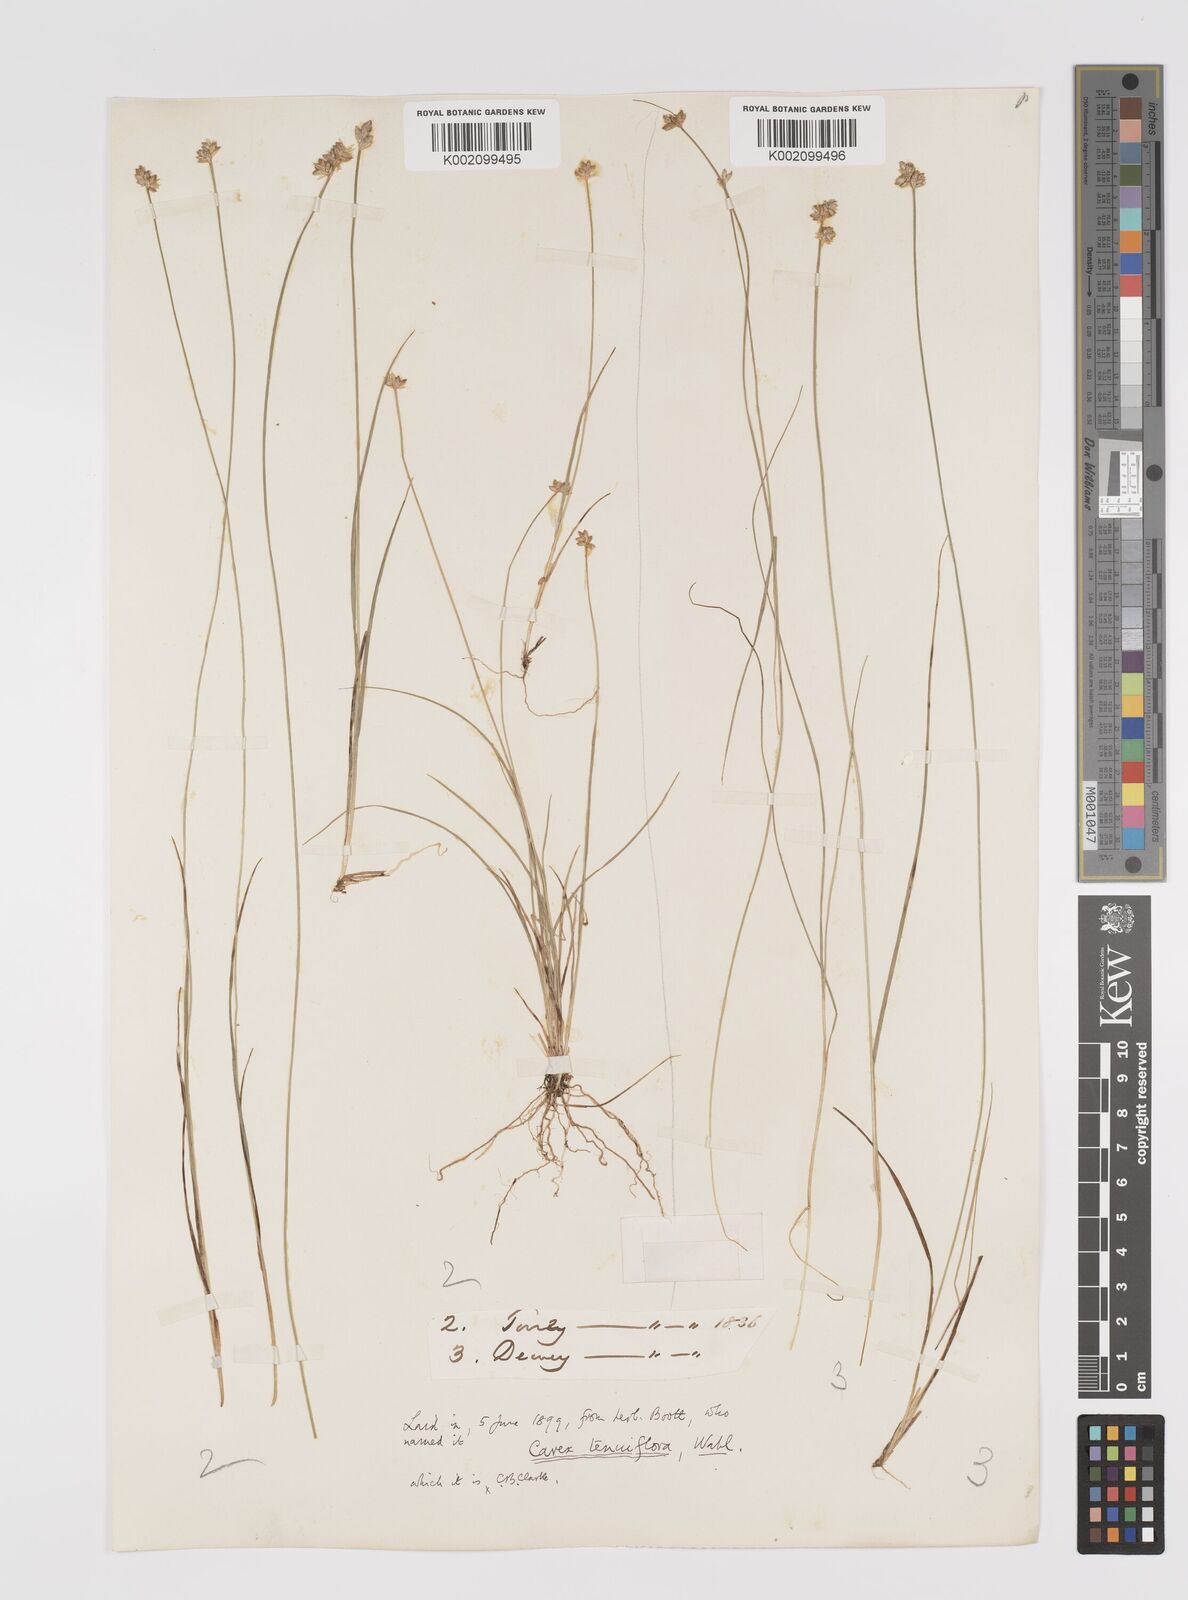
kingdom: Plantae
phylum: Tracheophyta
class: Liliopsida
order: Poales
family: Cyperaceae
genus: Carex
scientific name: Carex tenuiflora
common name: Sparse-flowered sedge
